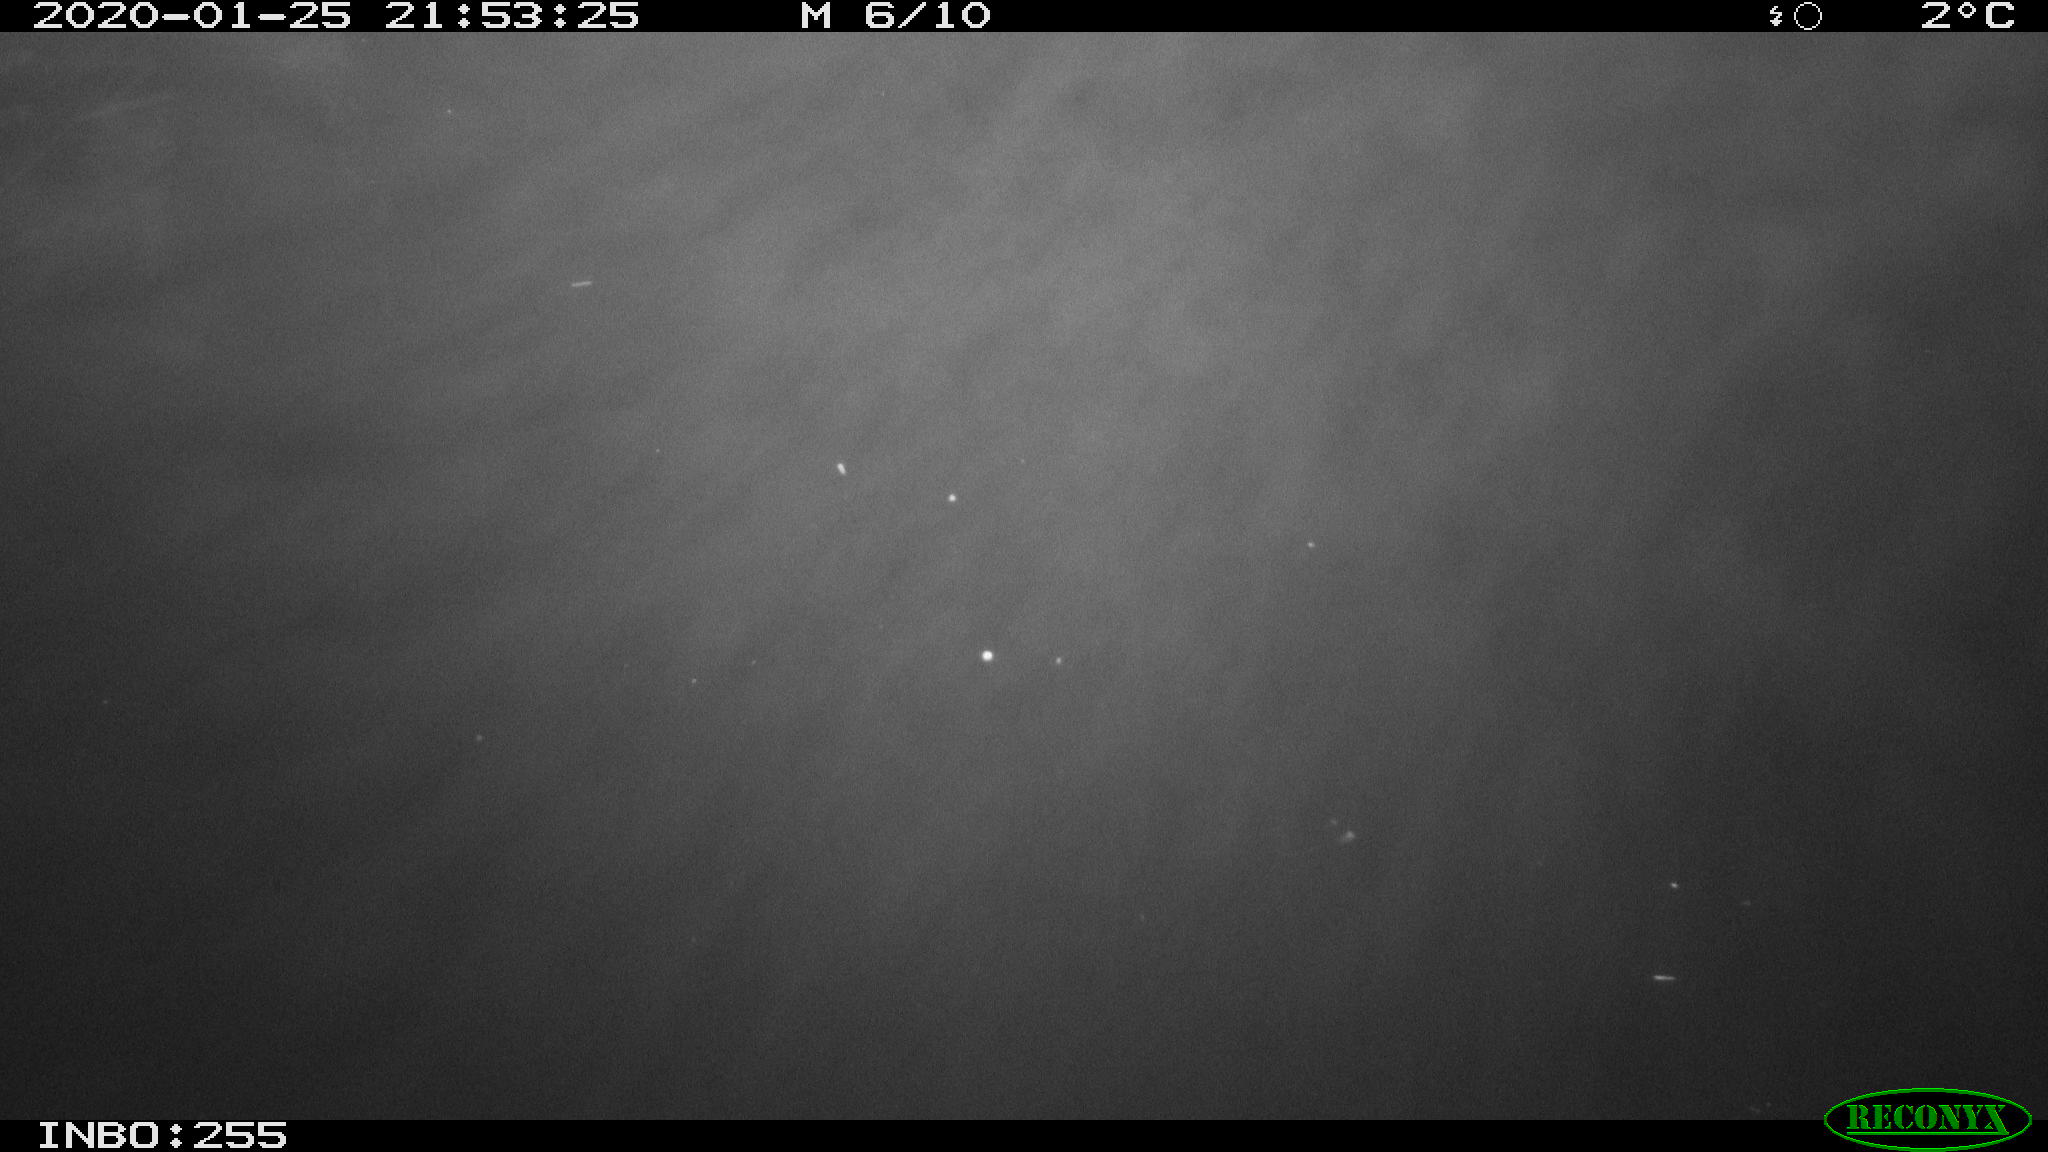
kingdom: Animalia
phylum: Chordata
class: Mammalia
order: Rodentia
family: Cricetidae
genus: Ondatra
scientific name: Ondatra zibethicus
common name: Muskrat
